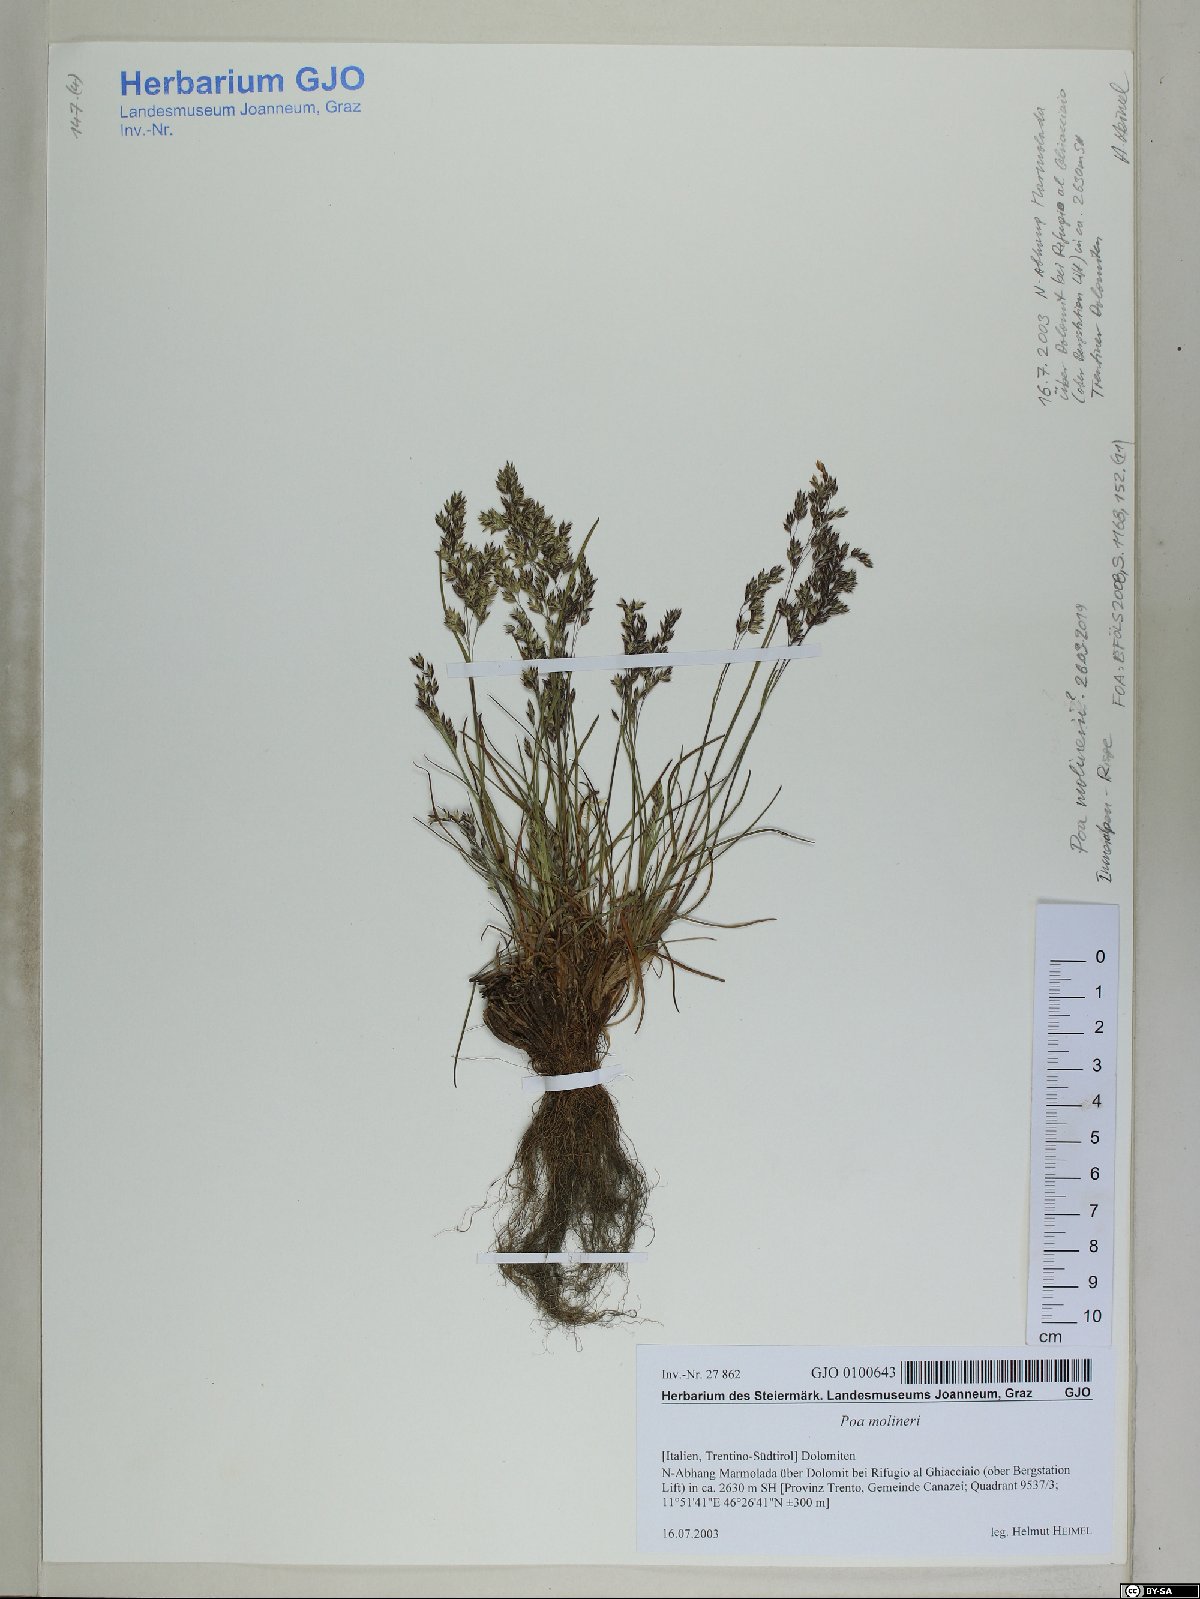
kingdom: Plantae
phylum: Tracheophyta
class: Liliopsida
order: Poales
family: Poaceae
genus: Poa
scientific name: Poa molinerii
